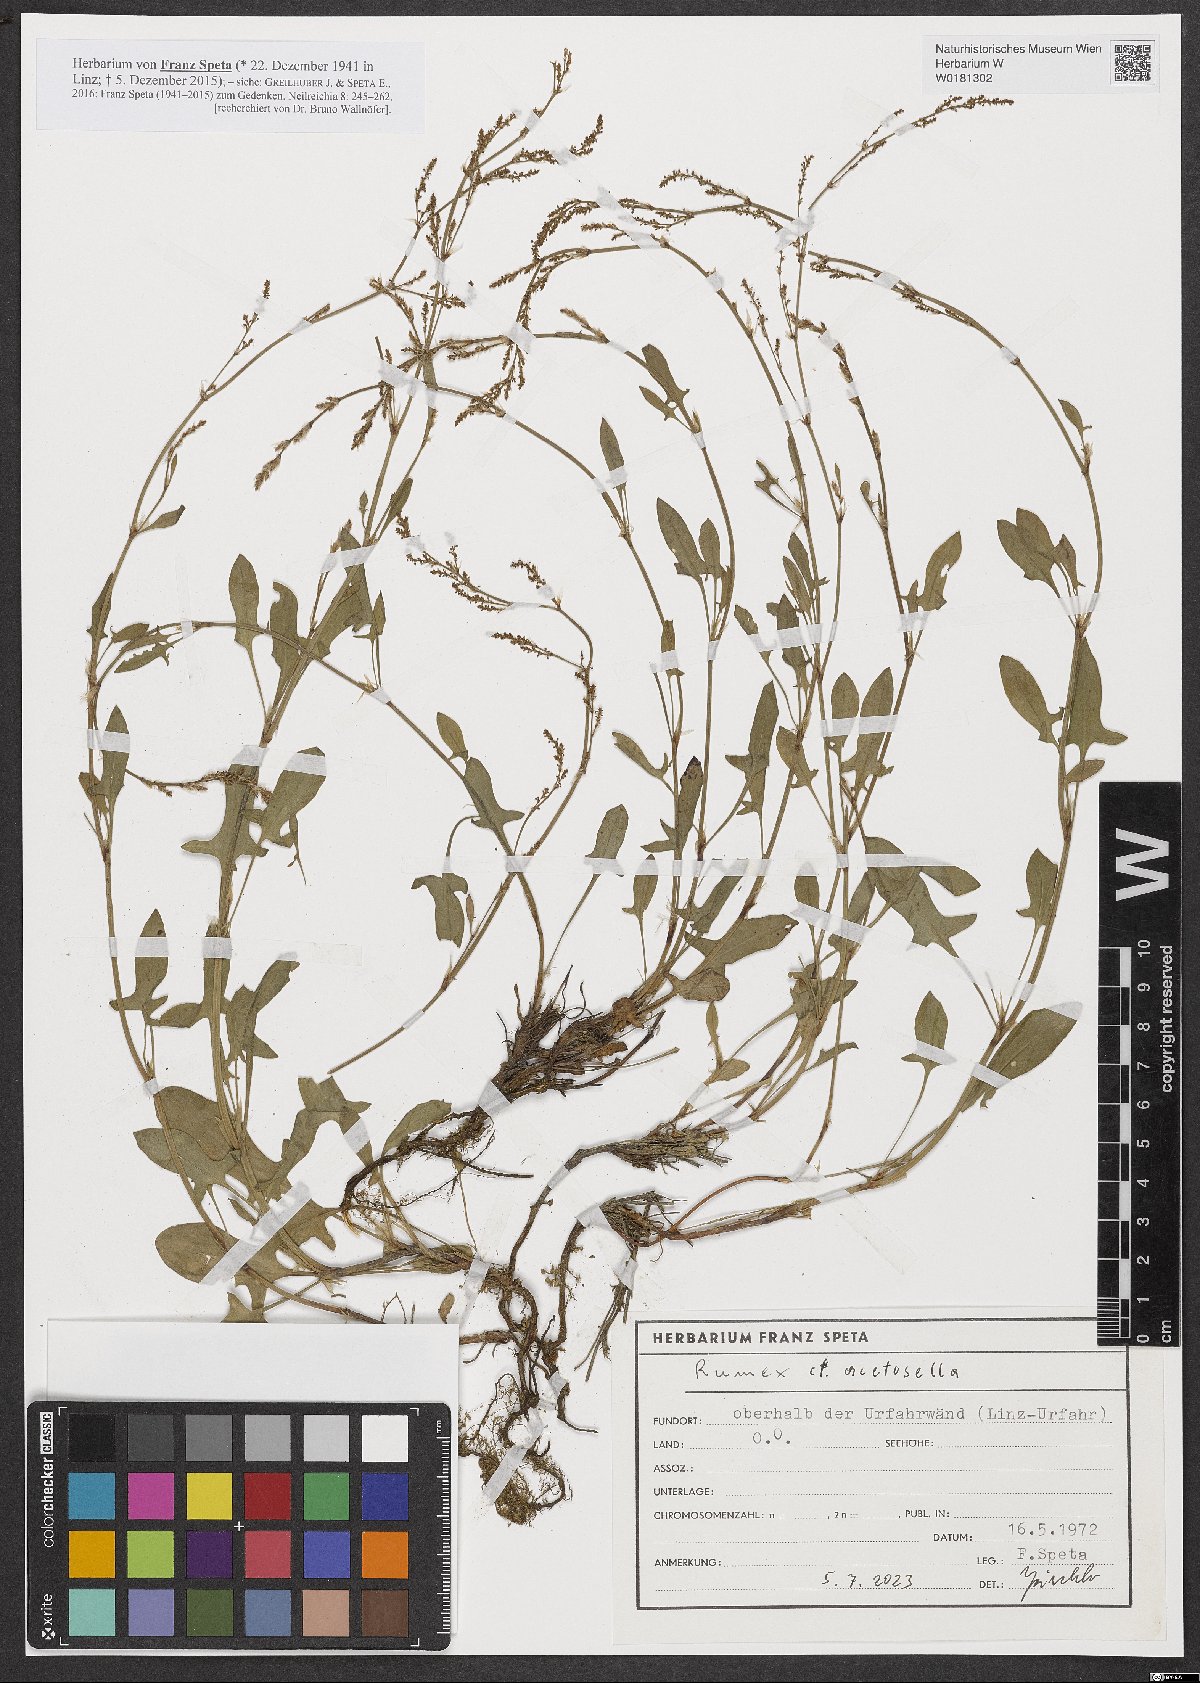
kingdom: Plantae
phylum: Tracheophyta
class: Magnoliopsida
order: Caryophyllales
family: Polygonaceae
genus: Rumex
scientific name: Rumex acetosella
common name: Common sheep sorrel
